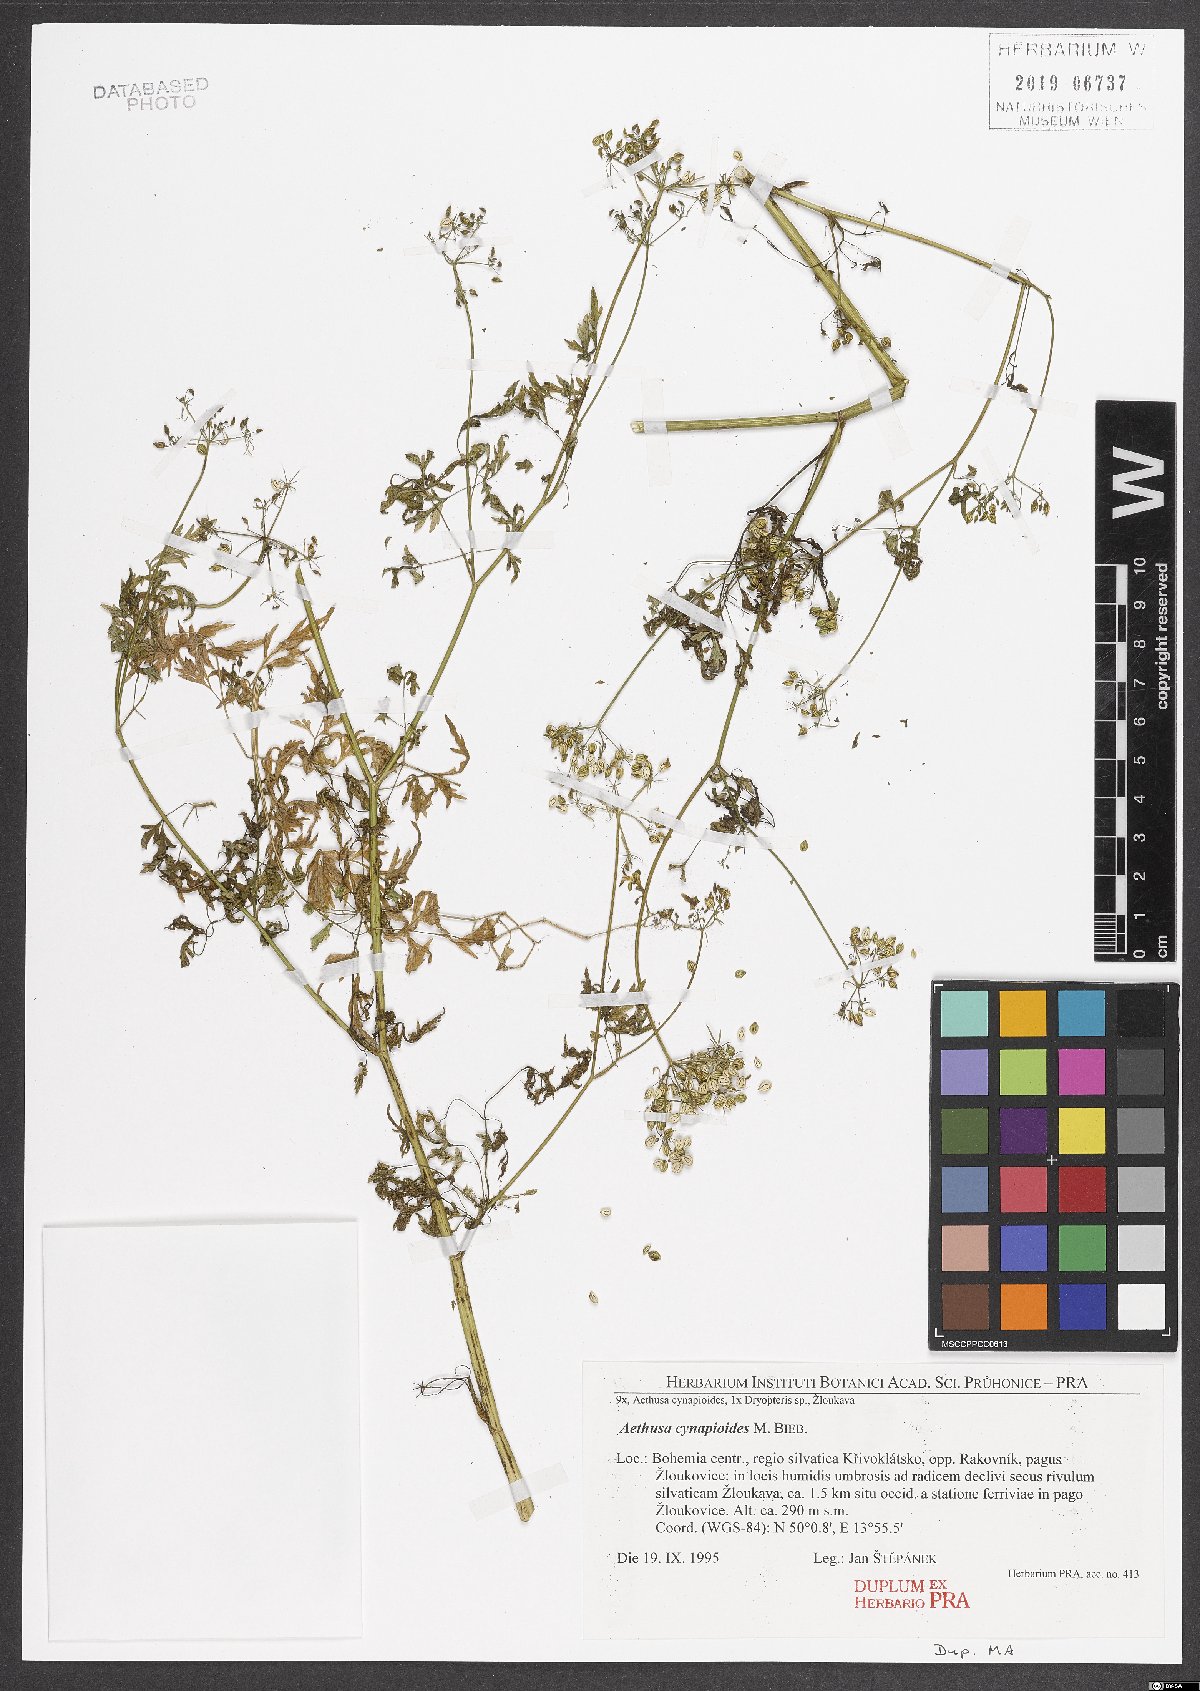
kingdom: Plantae
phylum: Tracheophyta
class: Magnoliopsida
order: Apiales
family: Apiaceae
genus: Aethusa
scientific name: Aethusa cynapium
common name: Fool's parsley
